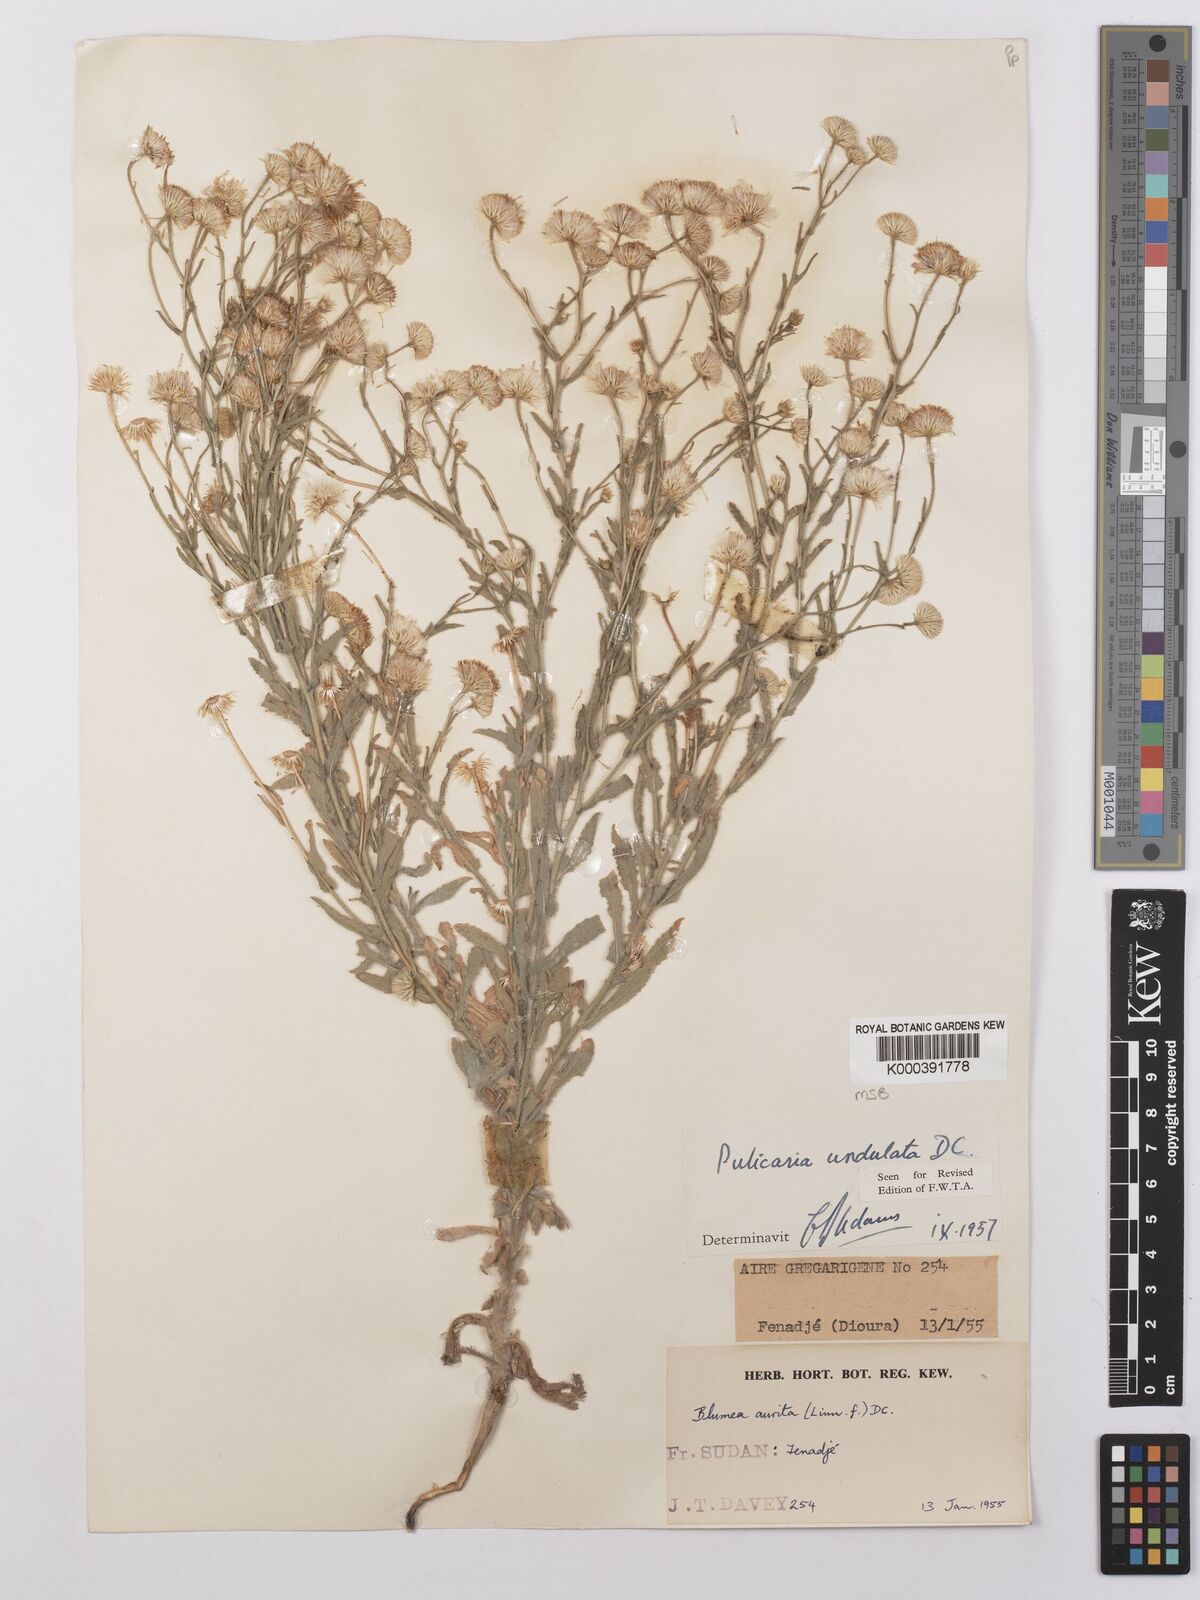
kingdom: Plantae
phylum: Tracheophyta
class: Magnoliopsida
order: Asterales
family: Asteraceae
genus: Pulicaria
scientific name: Pulicaria undulata
